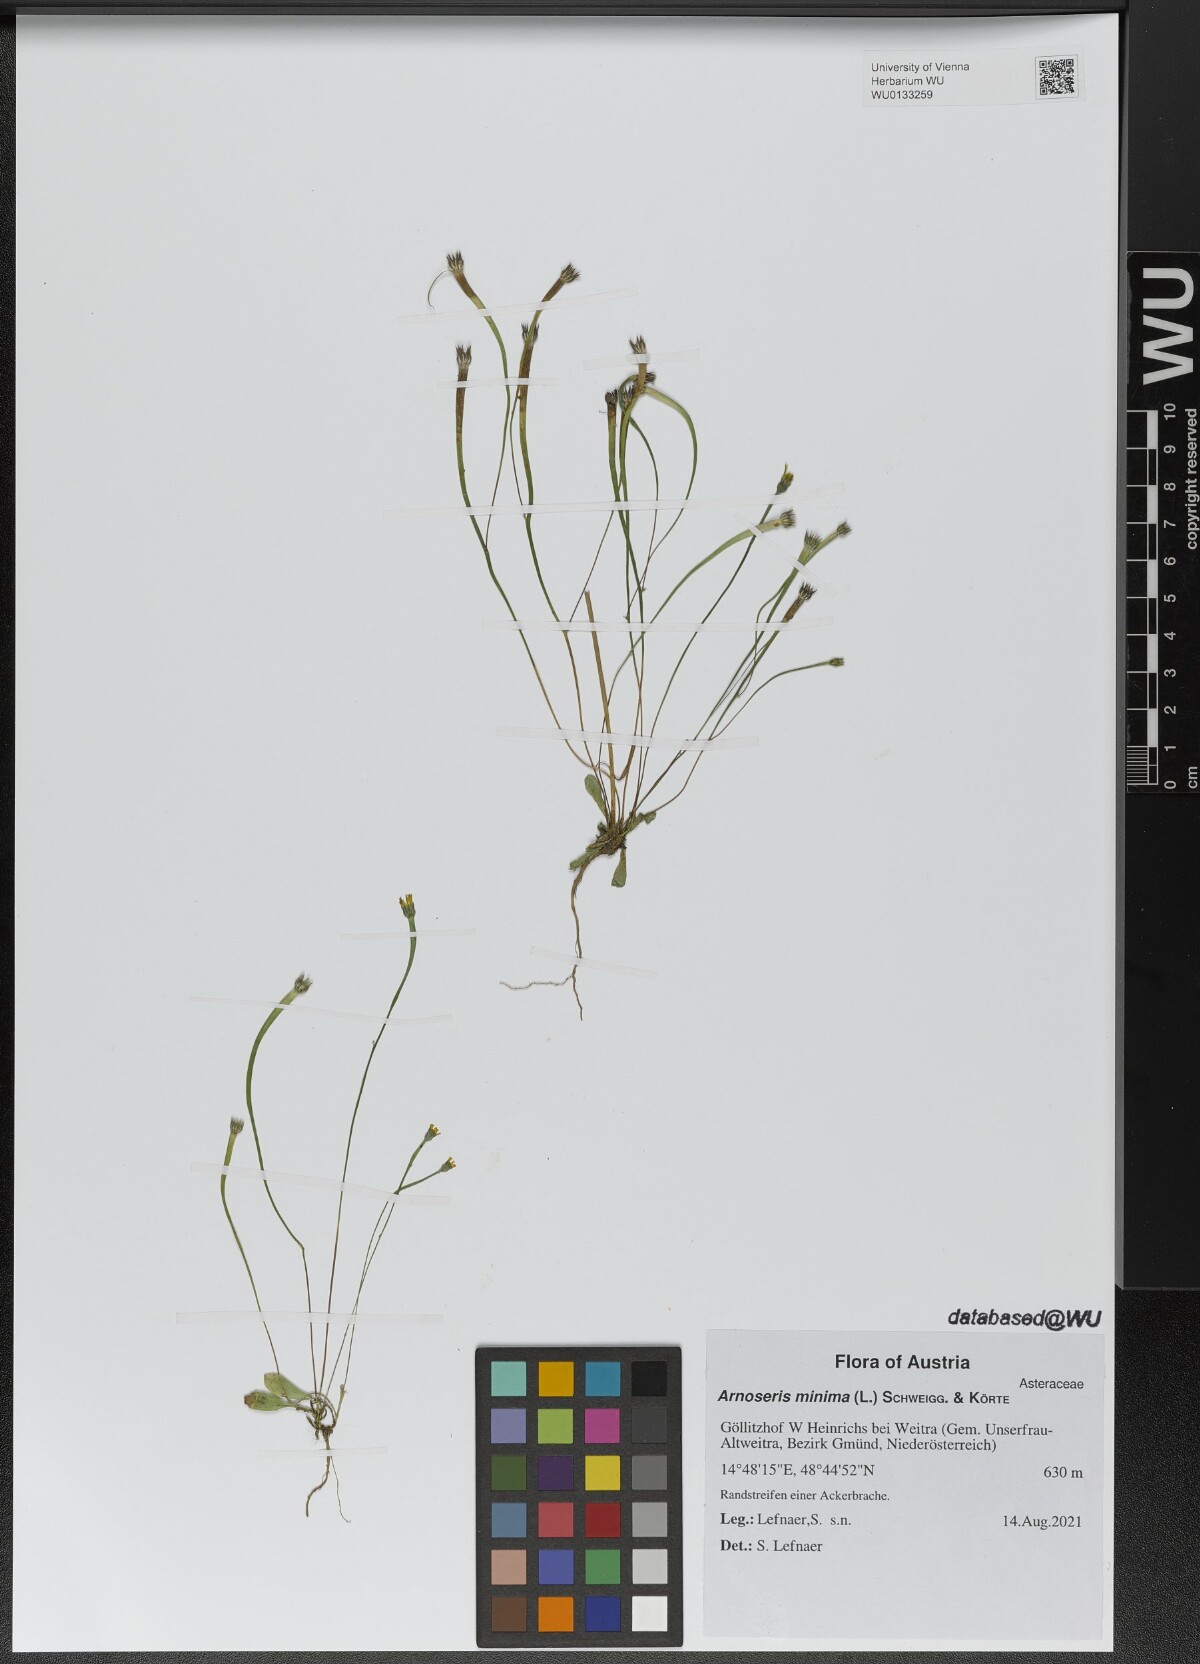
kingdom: Plantae
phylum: Tracheophyta
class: Magnoliopsida
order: Asterales
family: Asteraceae
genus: Arnoseris
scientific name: Arnoseris minima
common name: Lamb's succory
